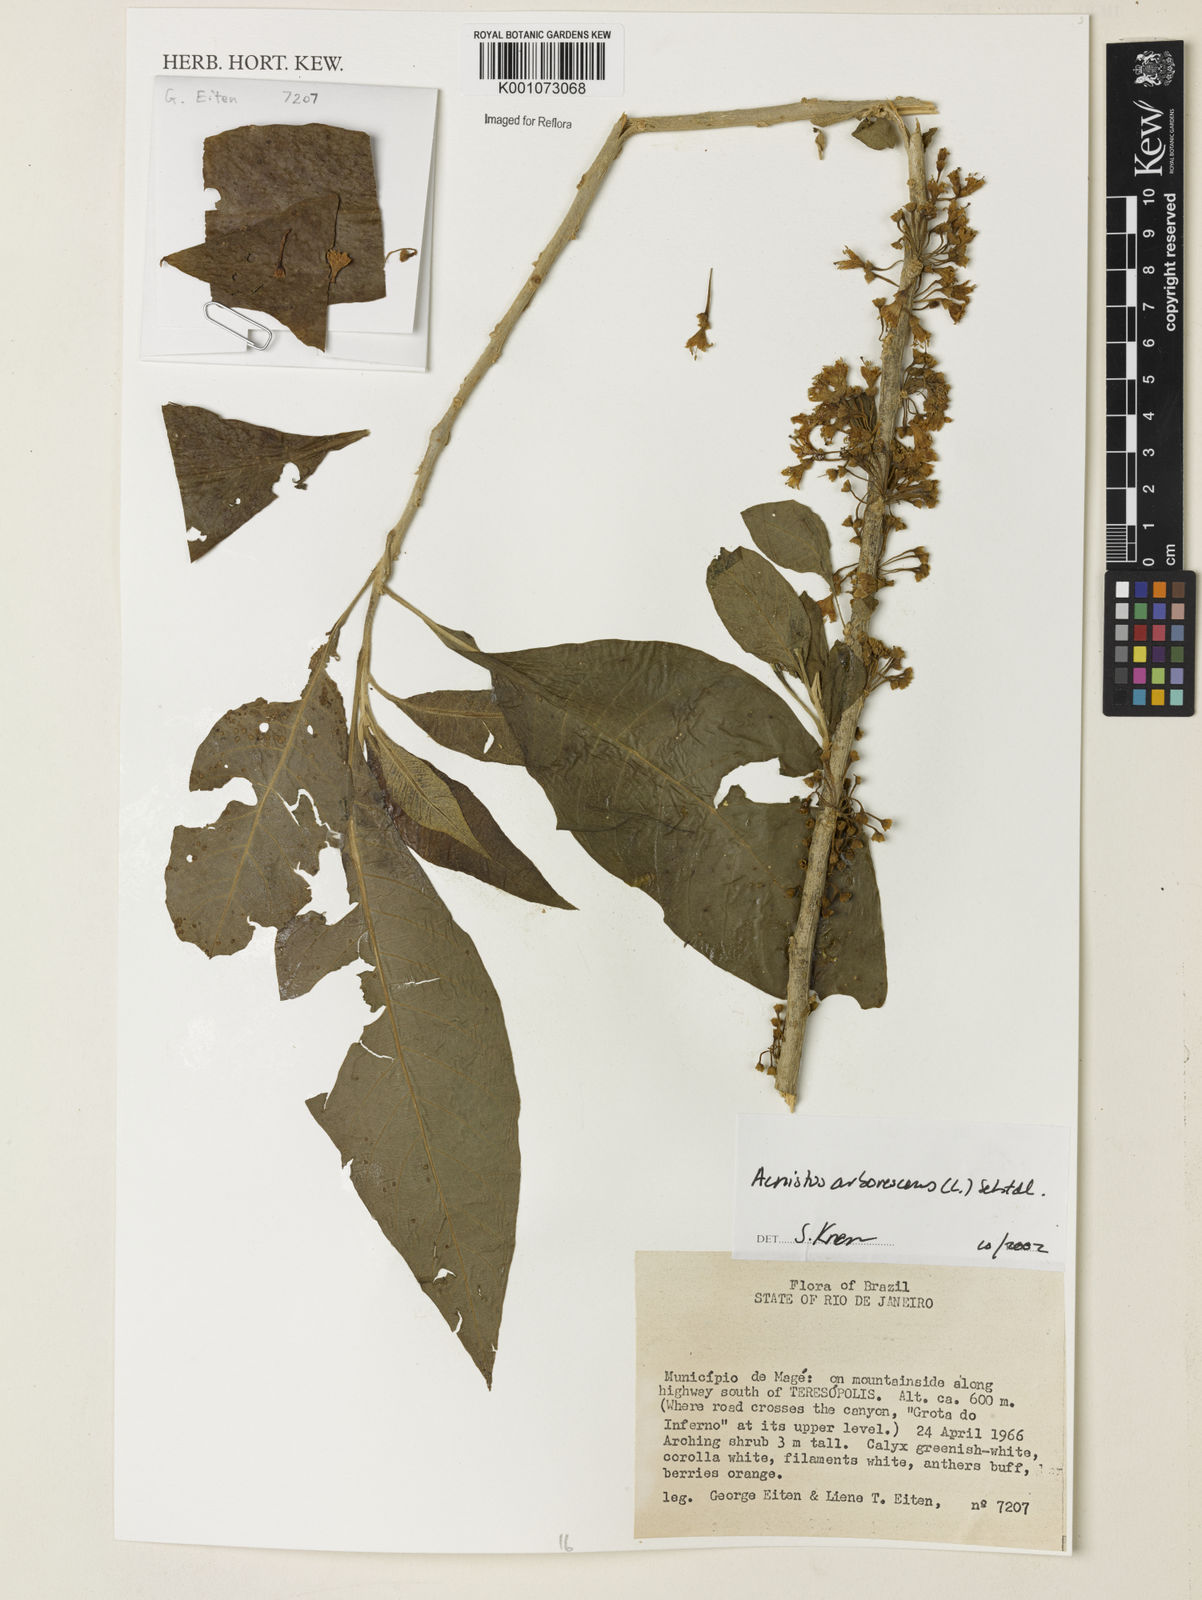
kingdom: Plantae
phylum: Tracheophyta
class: Magnoliopsida
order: Solanales
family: Solanaceae
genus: Iochroma
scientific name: Iochroma arborescens
